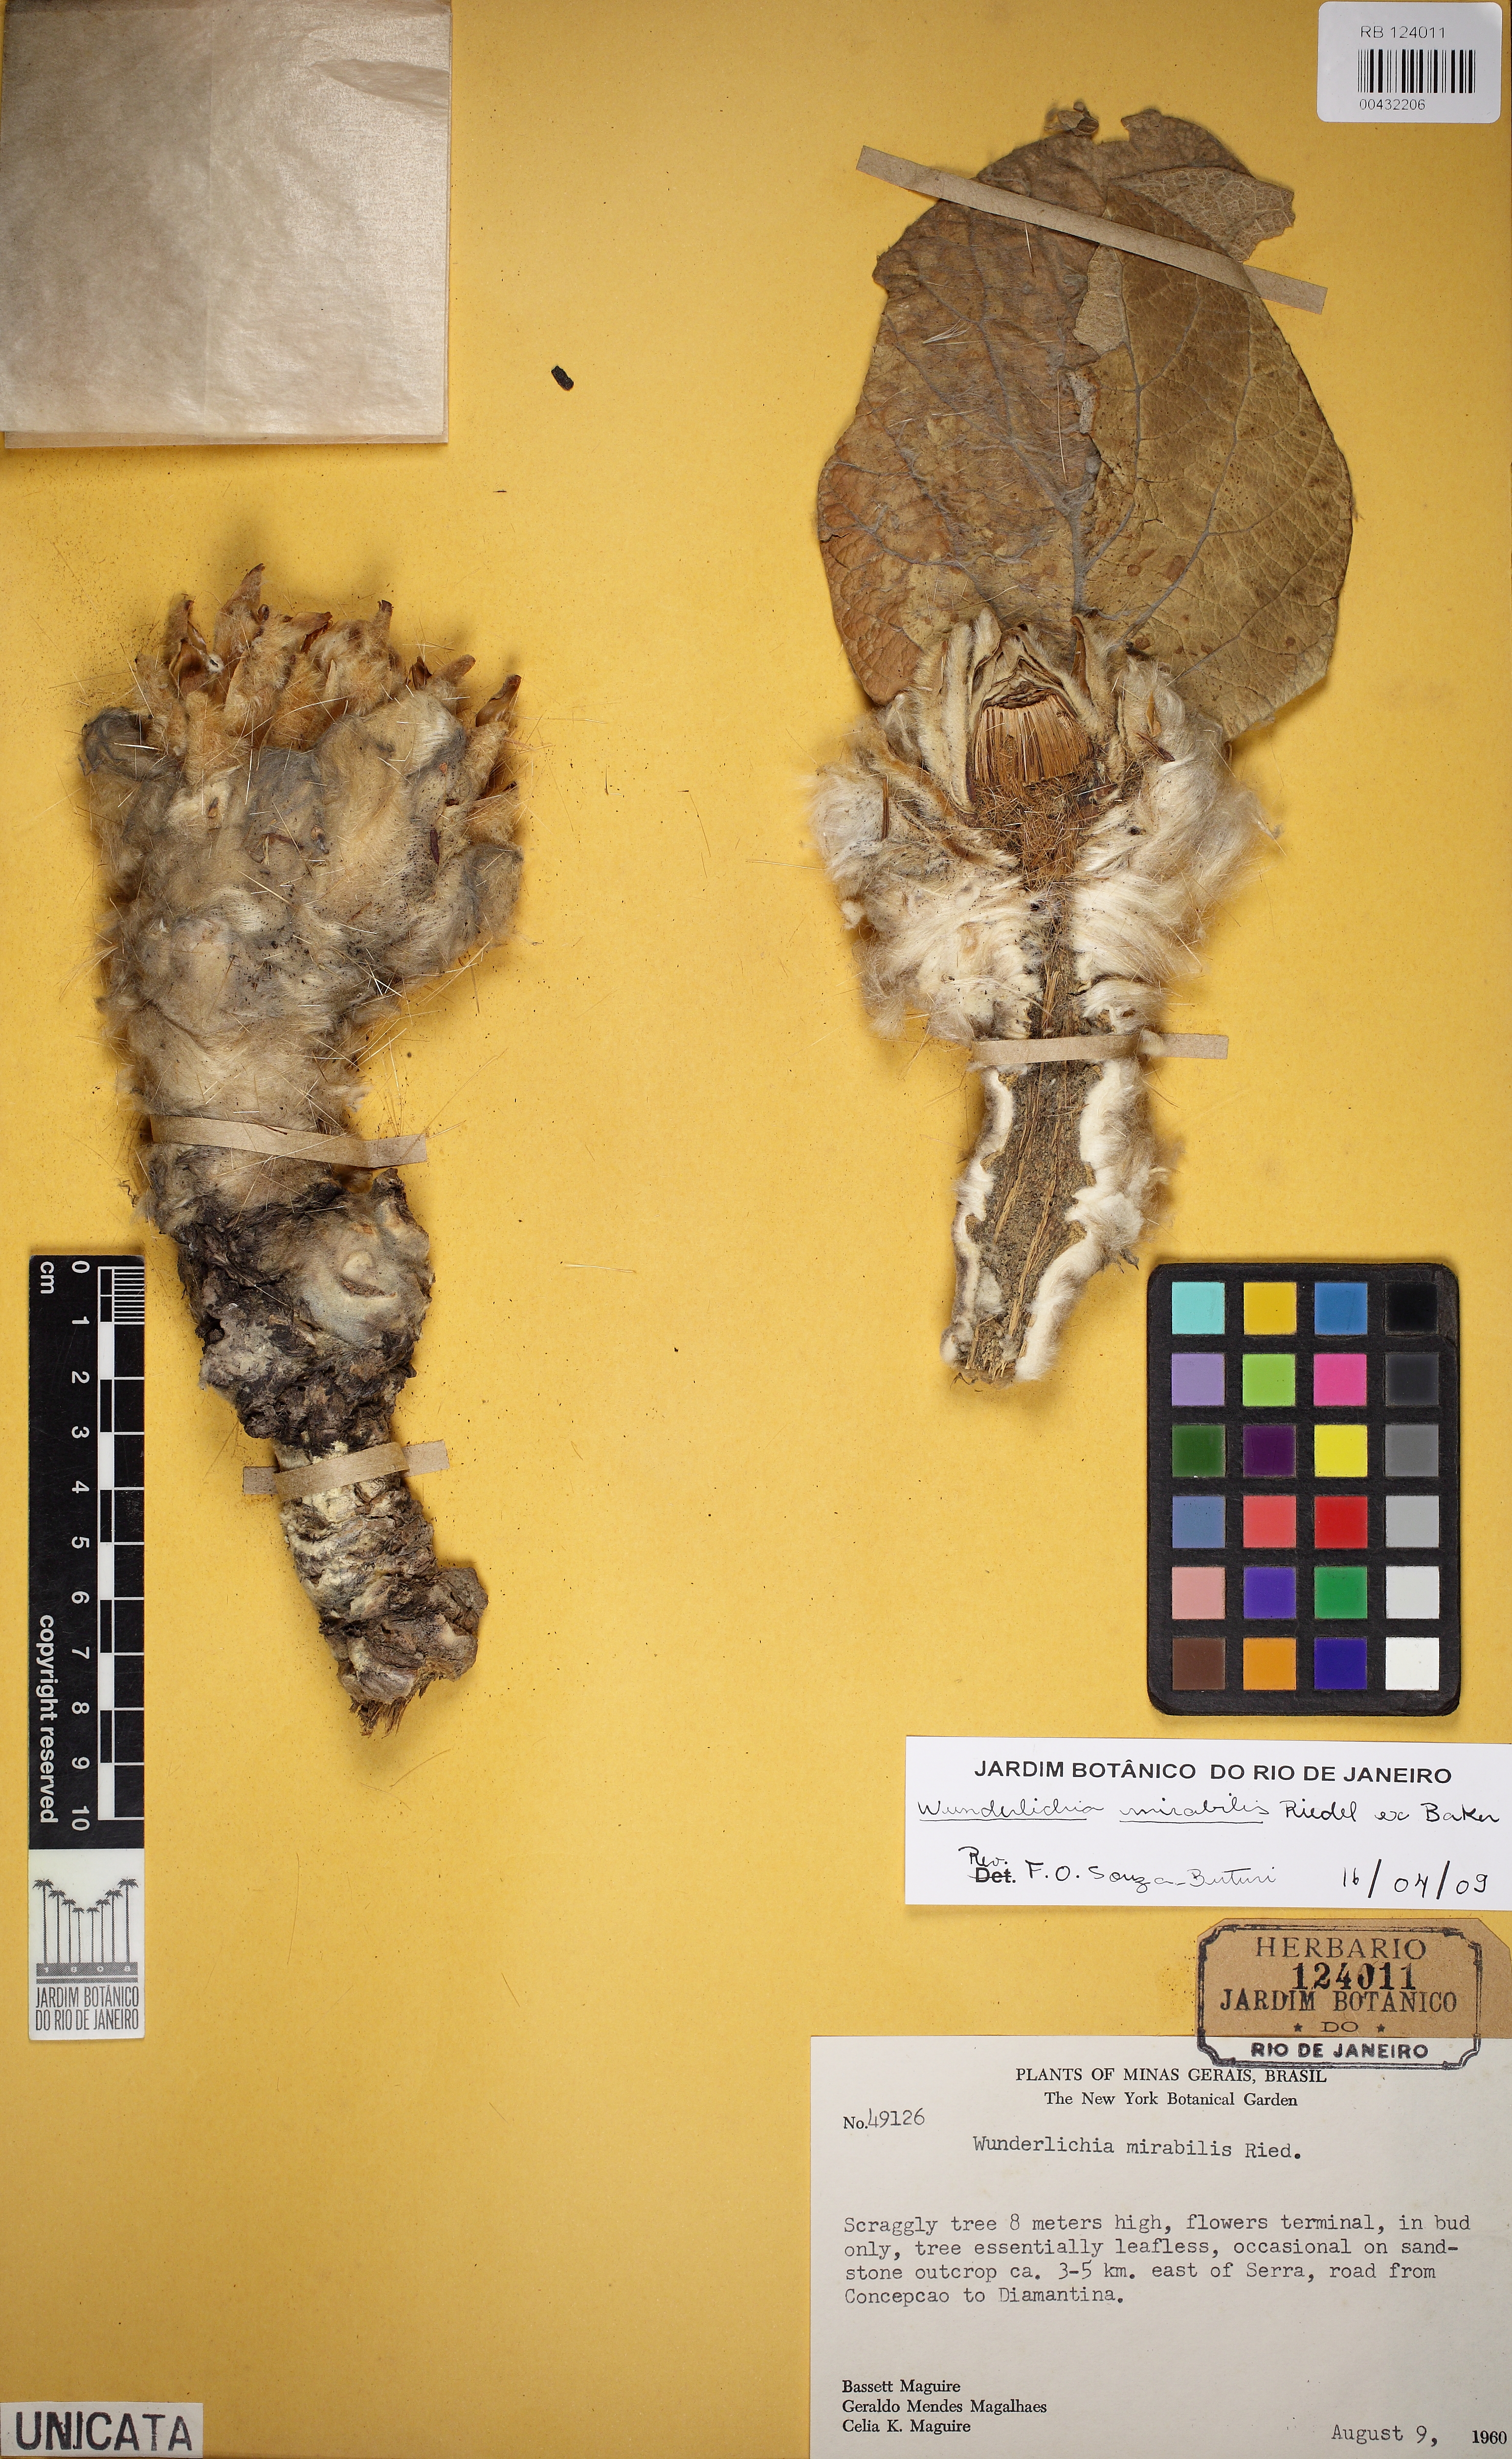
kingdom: Plantae
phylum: Tracheophyta
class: Magnoliopsida
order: Asterales
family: Asteraceae
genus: Wunderlichia
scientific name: Wunderlichia mirabilis
